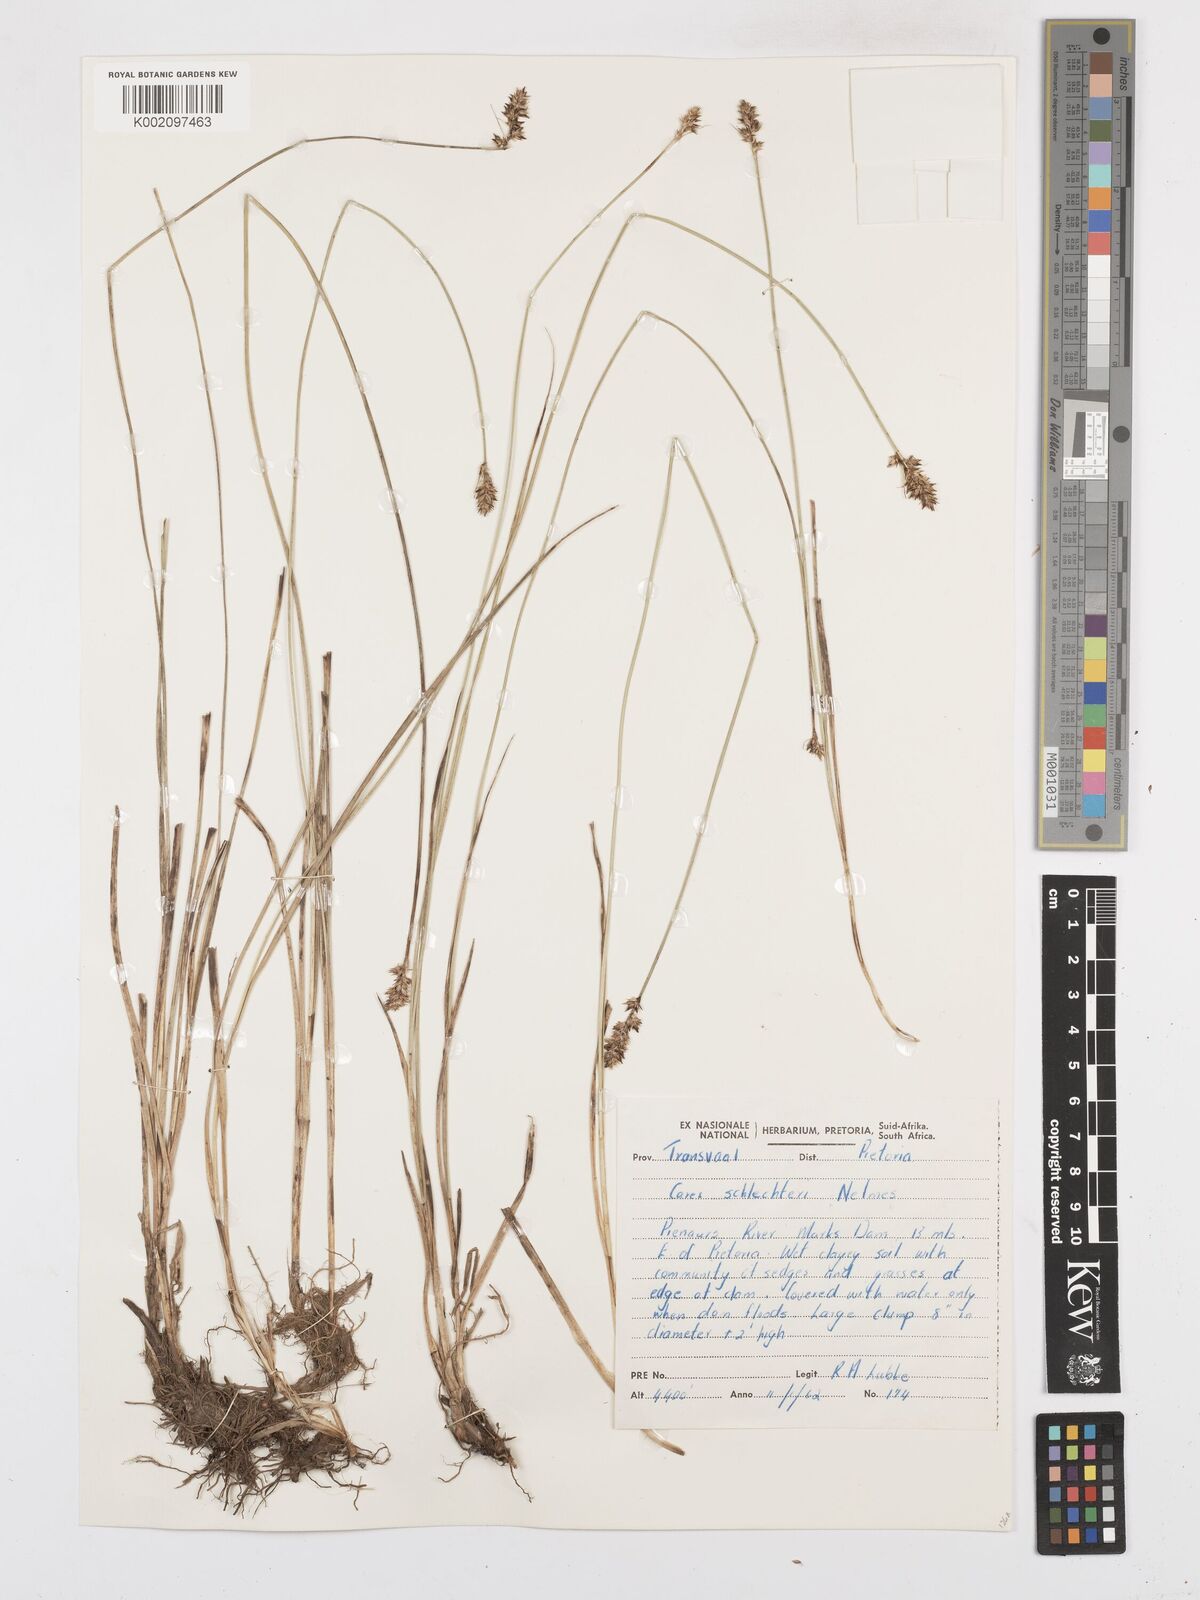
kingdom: Plantae
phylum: Tracheophyta
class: Liliopsida
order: Poales
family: Cyperaceae
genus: Carex
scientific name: Carex glomerata
